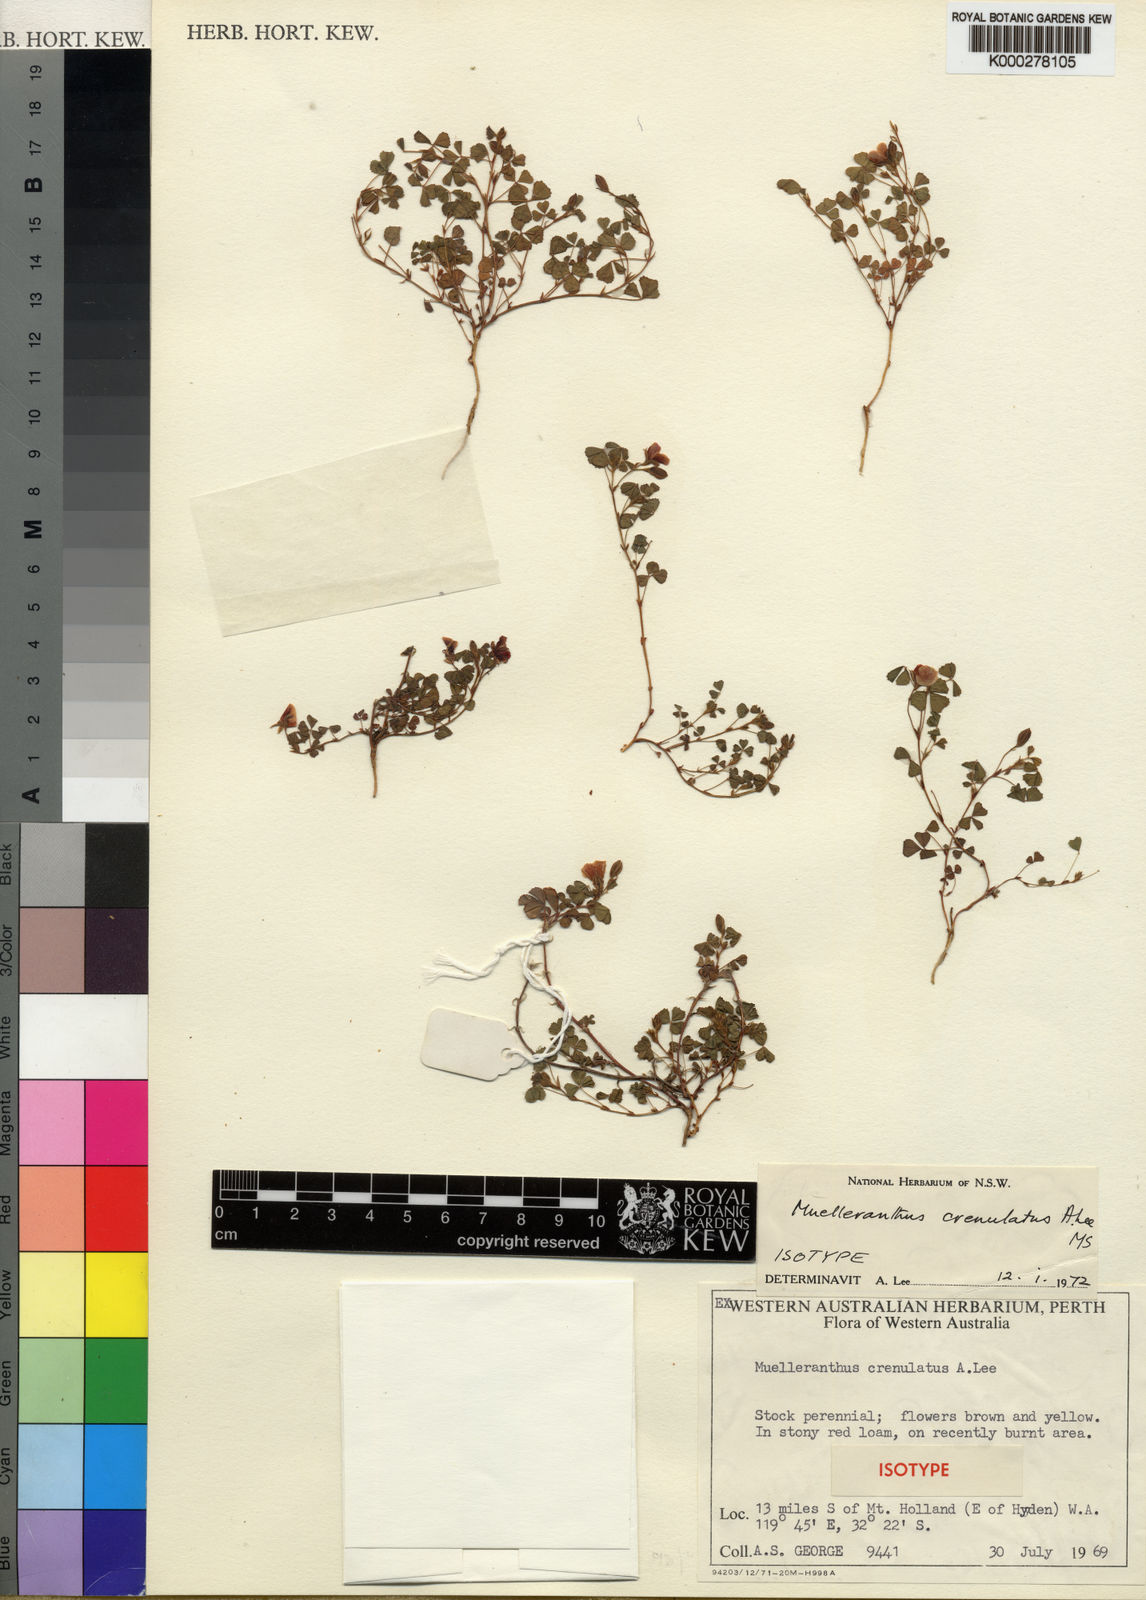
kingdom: Plantae
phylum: Tracheophyta
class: Magnoliopsida
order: Fabales
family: Fabaceae
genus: Paragoodia
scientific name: Paragoodia crenulata
